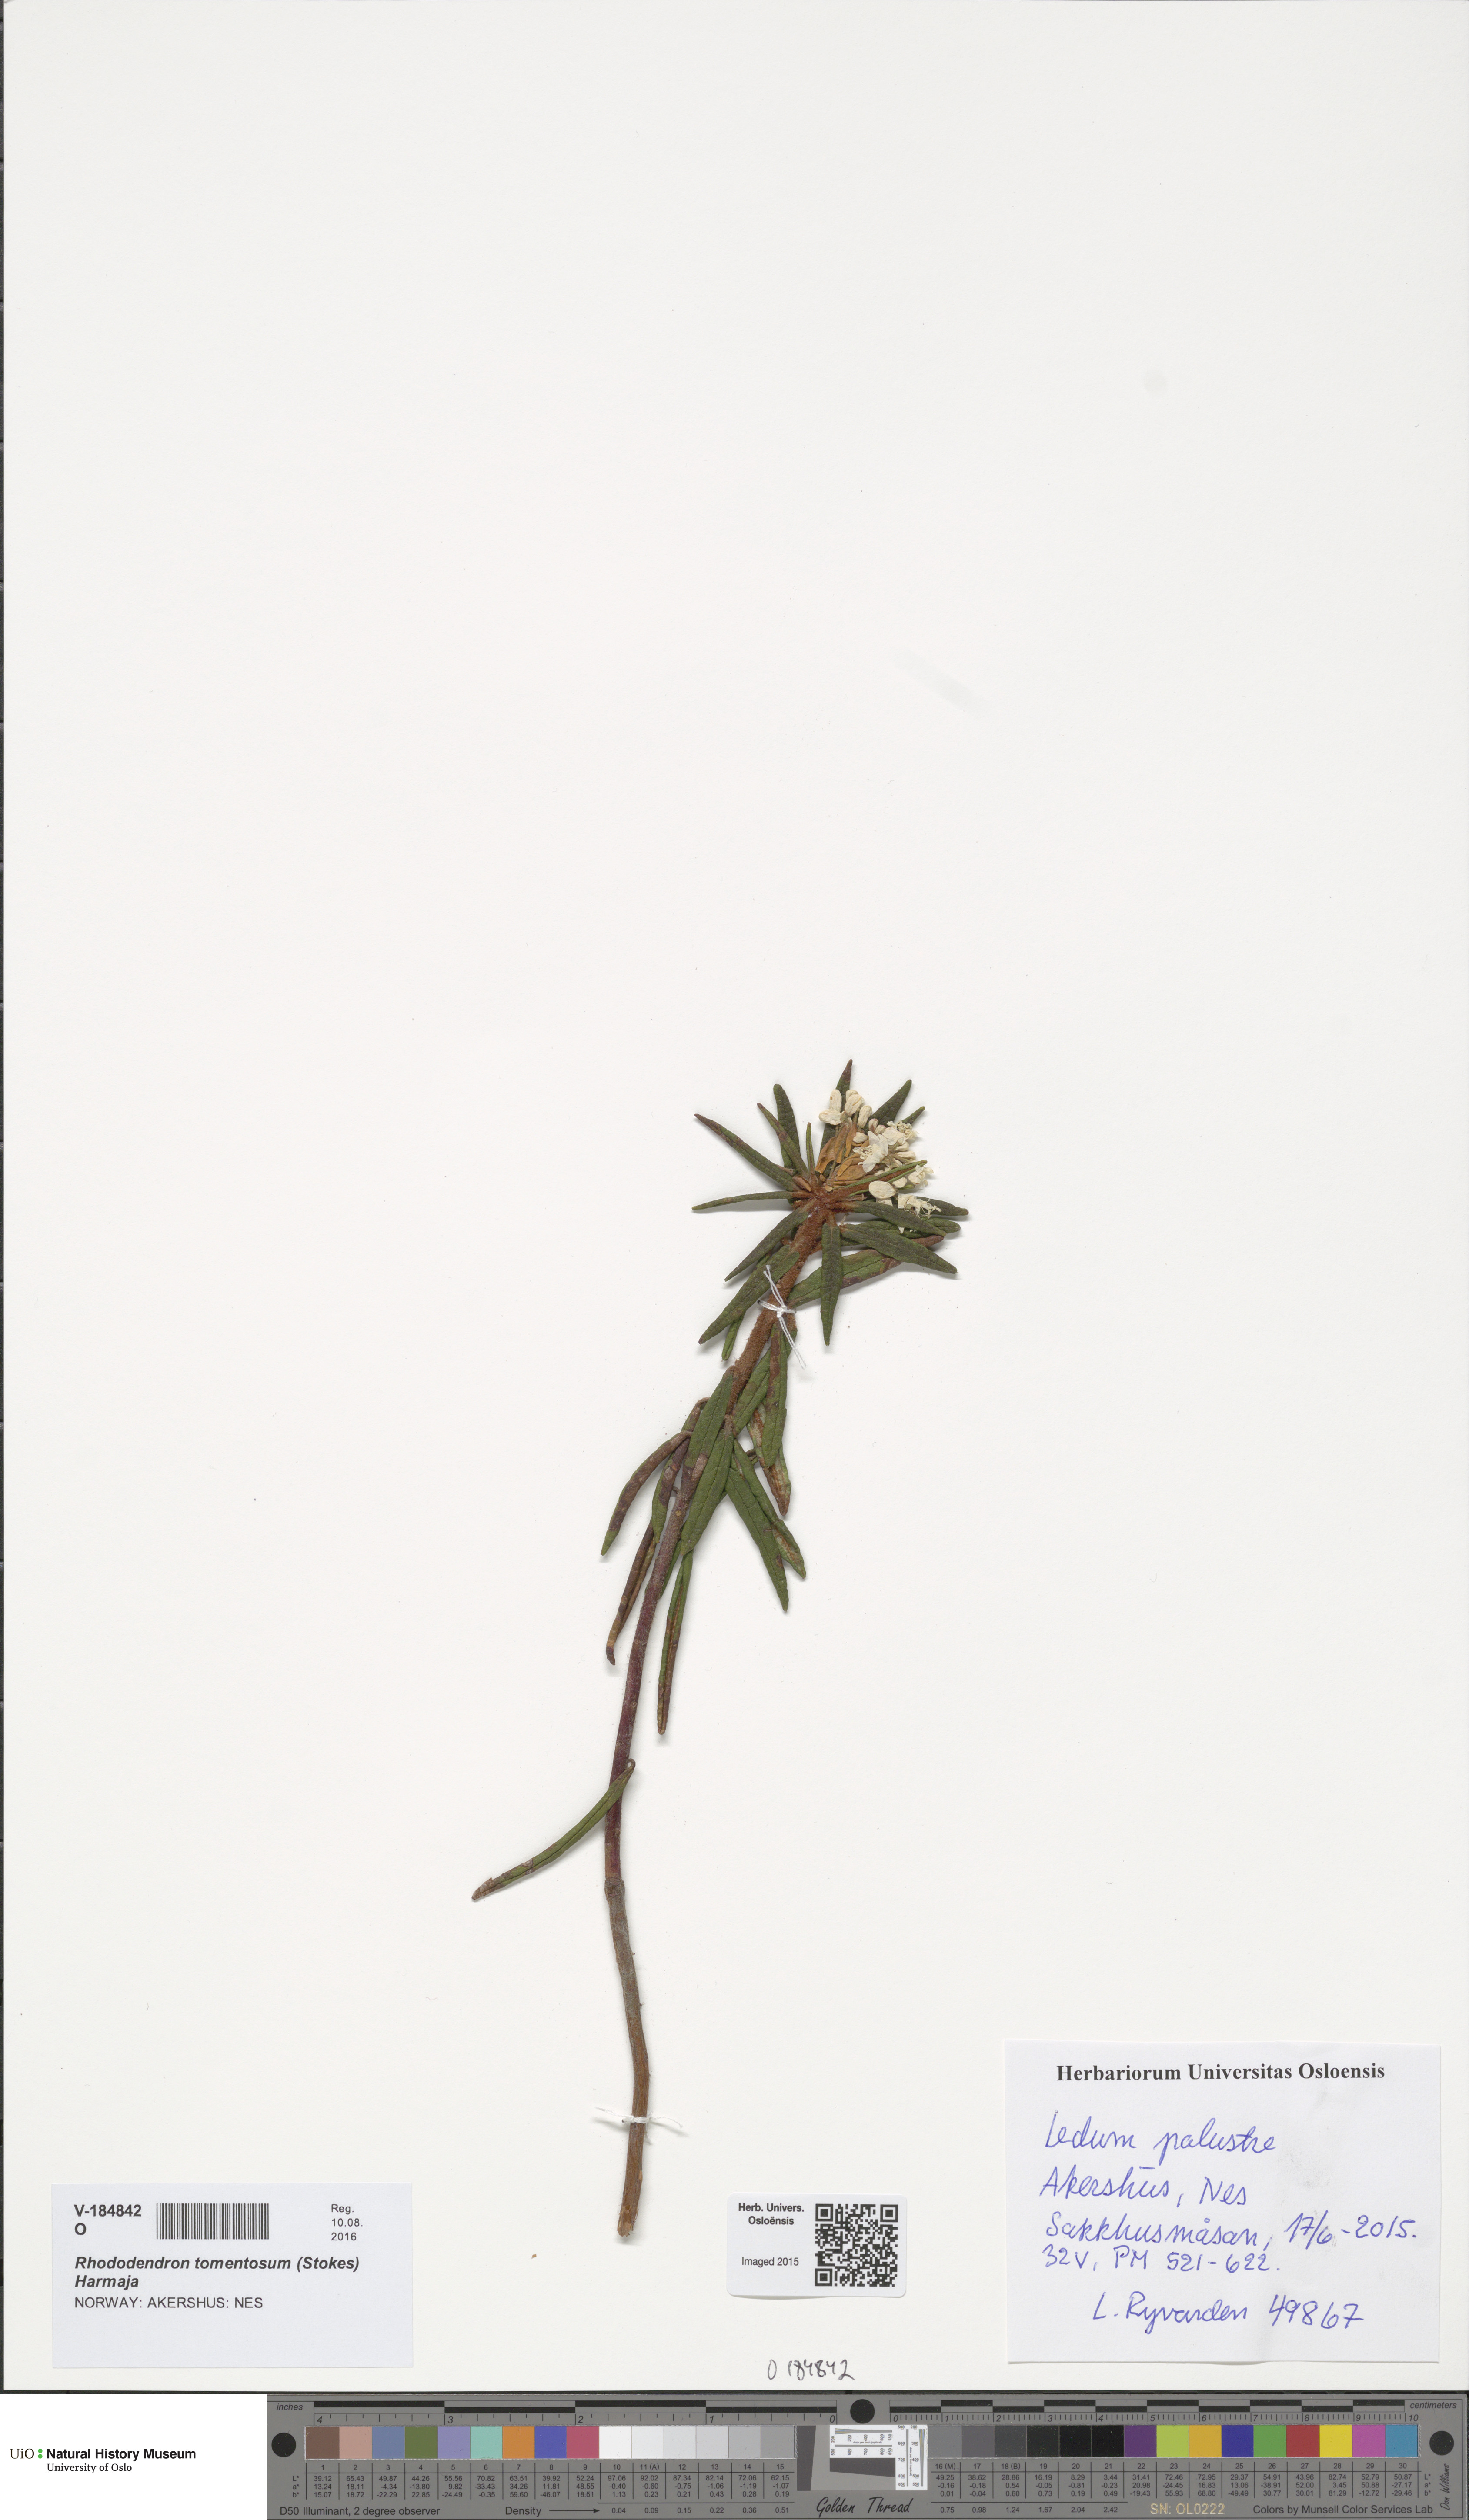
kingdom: Plantae
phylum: Tracheophyta
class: Magnoliopsida
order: Ericales
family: Ericaceae
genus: Rhododendron
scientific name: Rhododendron tomentosum
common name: Marsh labrador tea
